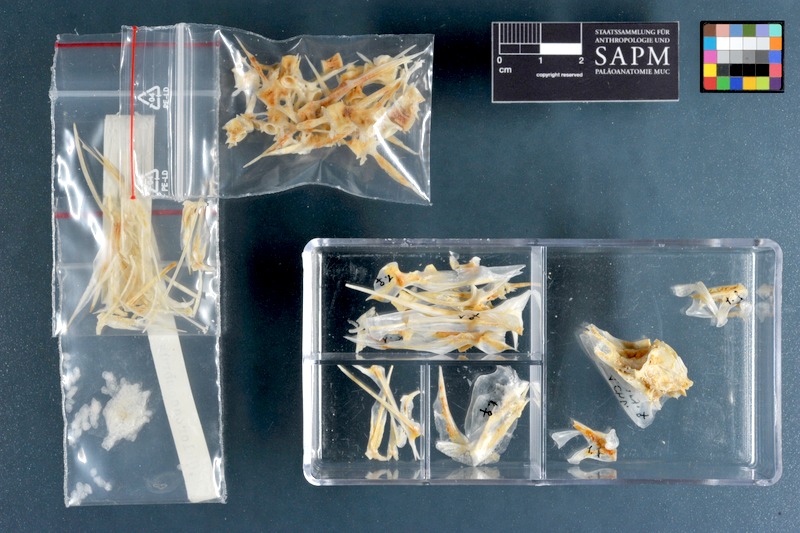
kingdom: Animalia
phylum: Chordata
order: Perciformes
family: Carangidae
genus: Chloroscombrus
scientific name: Chloroscombrus chrysurus
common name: Bumper
